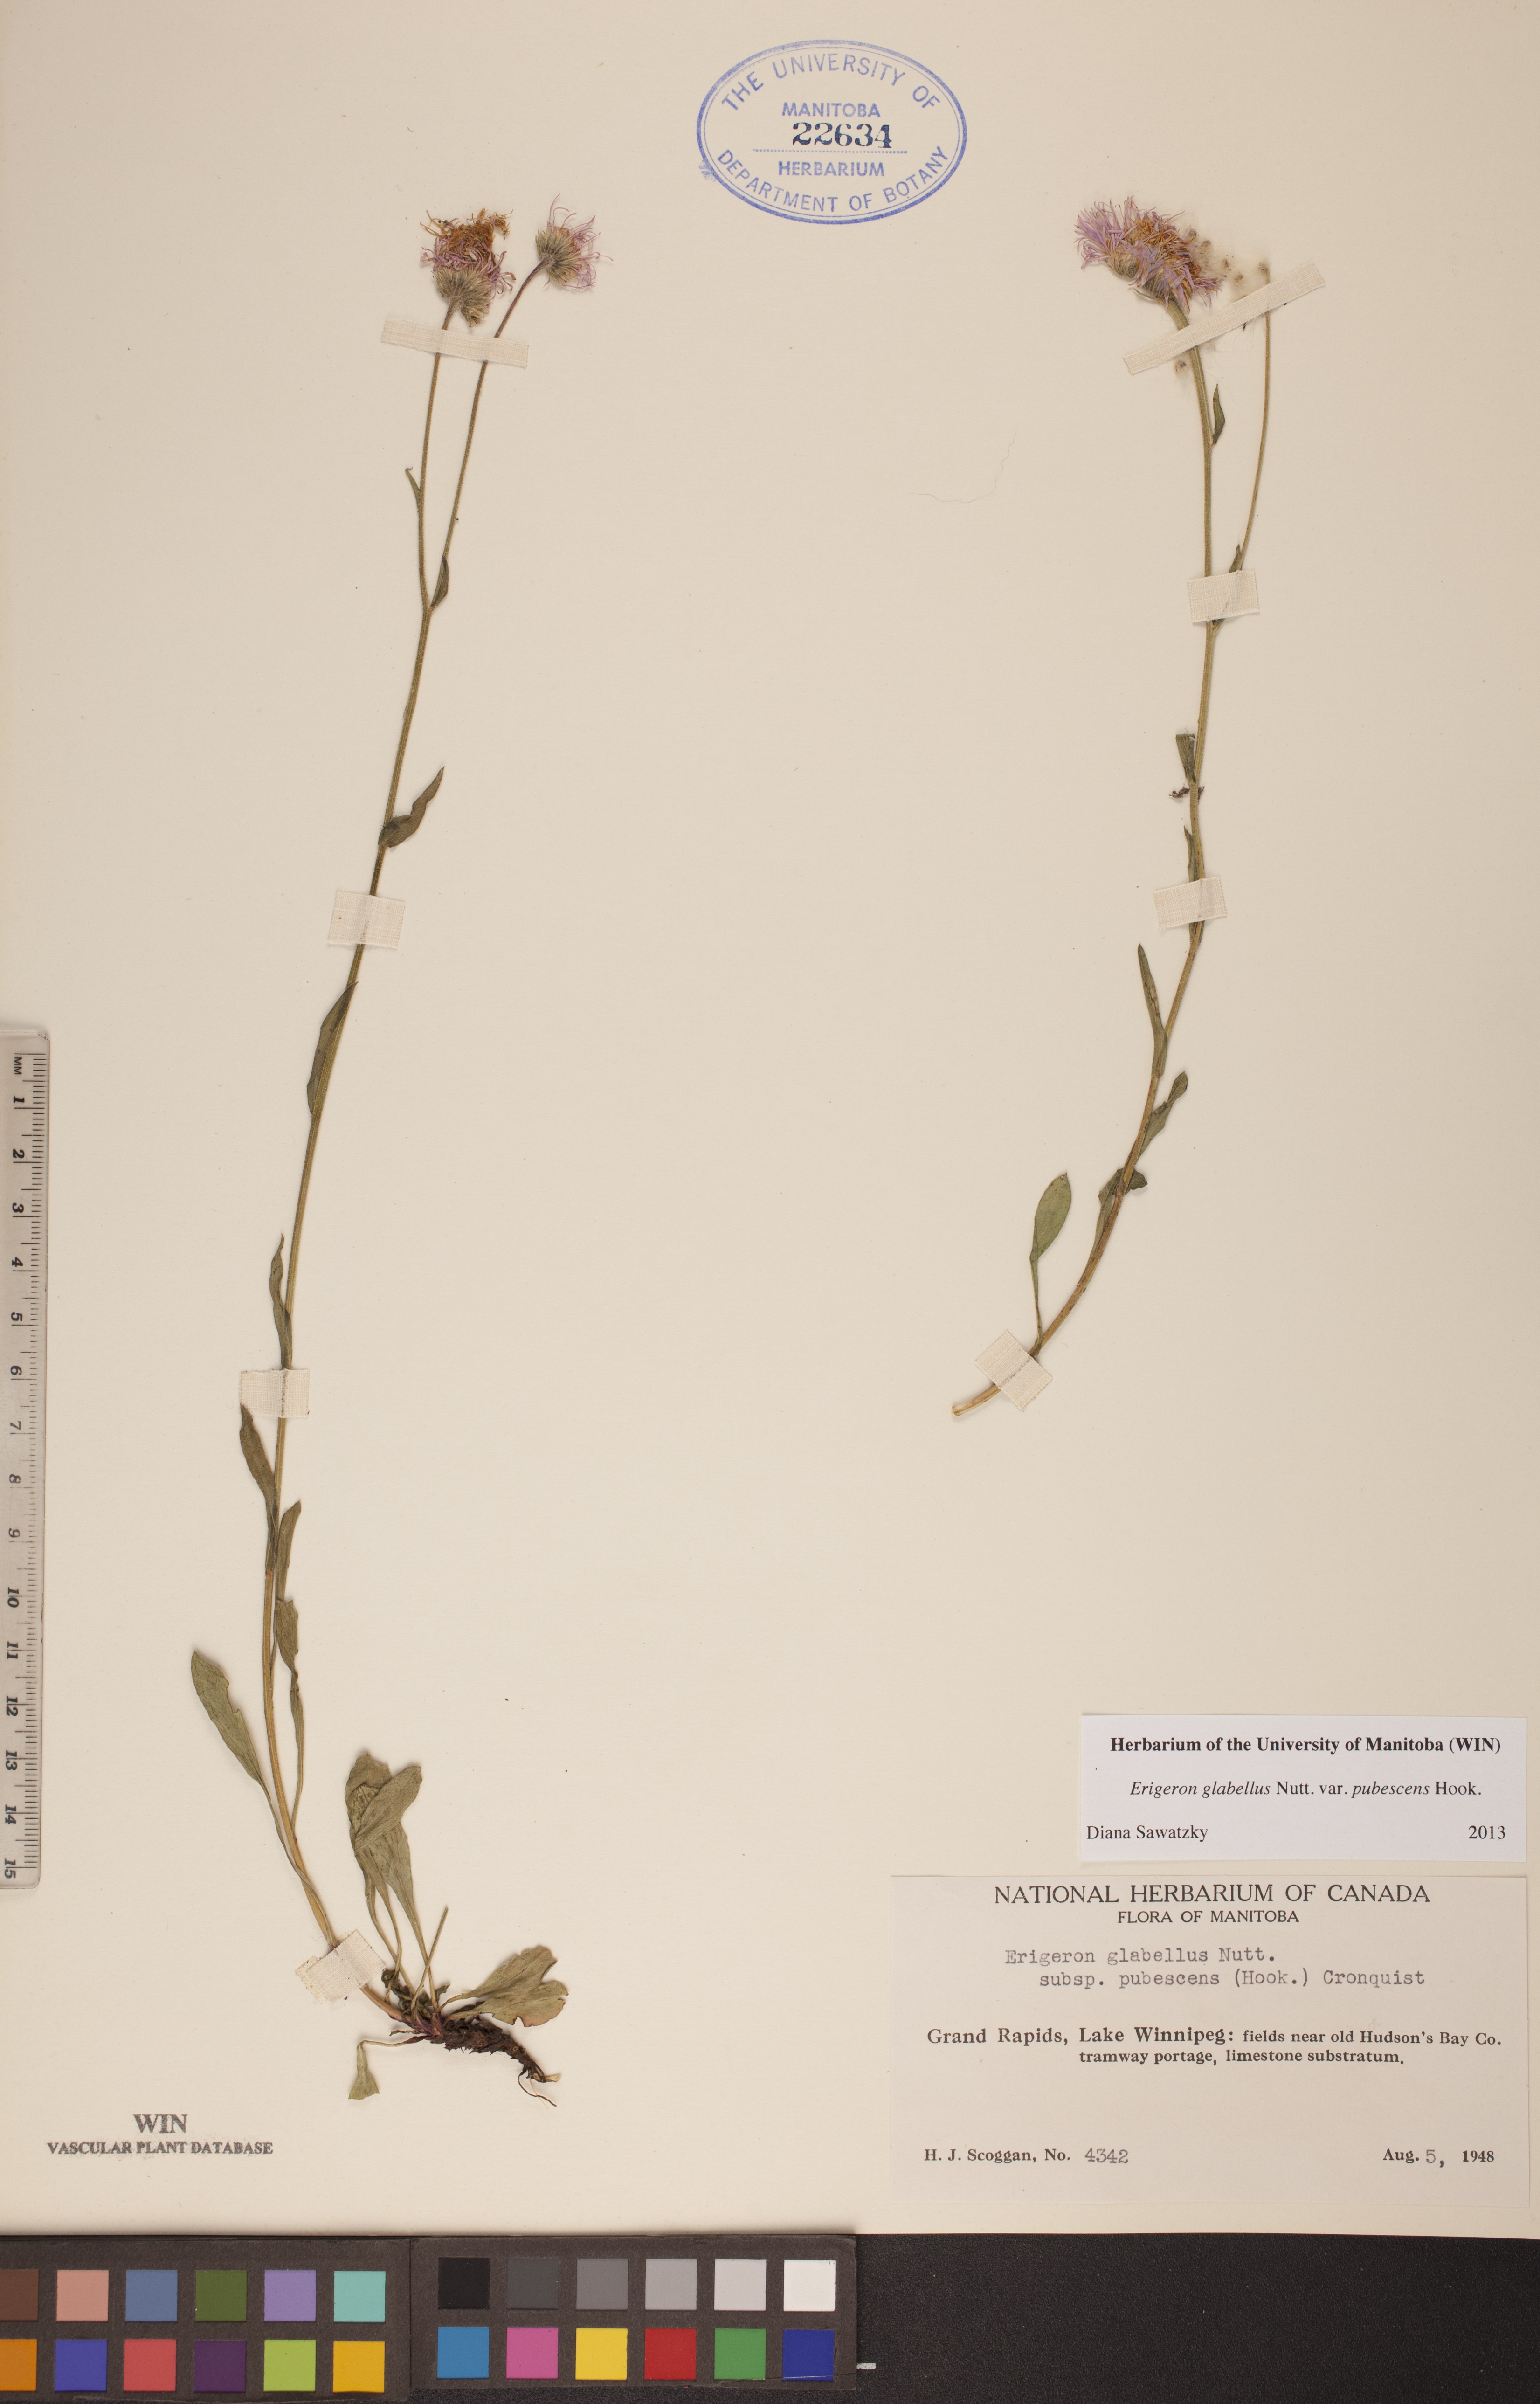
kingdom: Plantae
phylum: Tracheophyta
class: Magnoliopsida
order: Asterales
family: Asteraceae
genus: Erigeron
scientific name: Erigeron glabellus
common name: Smooth fleabane
